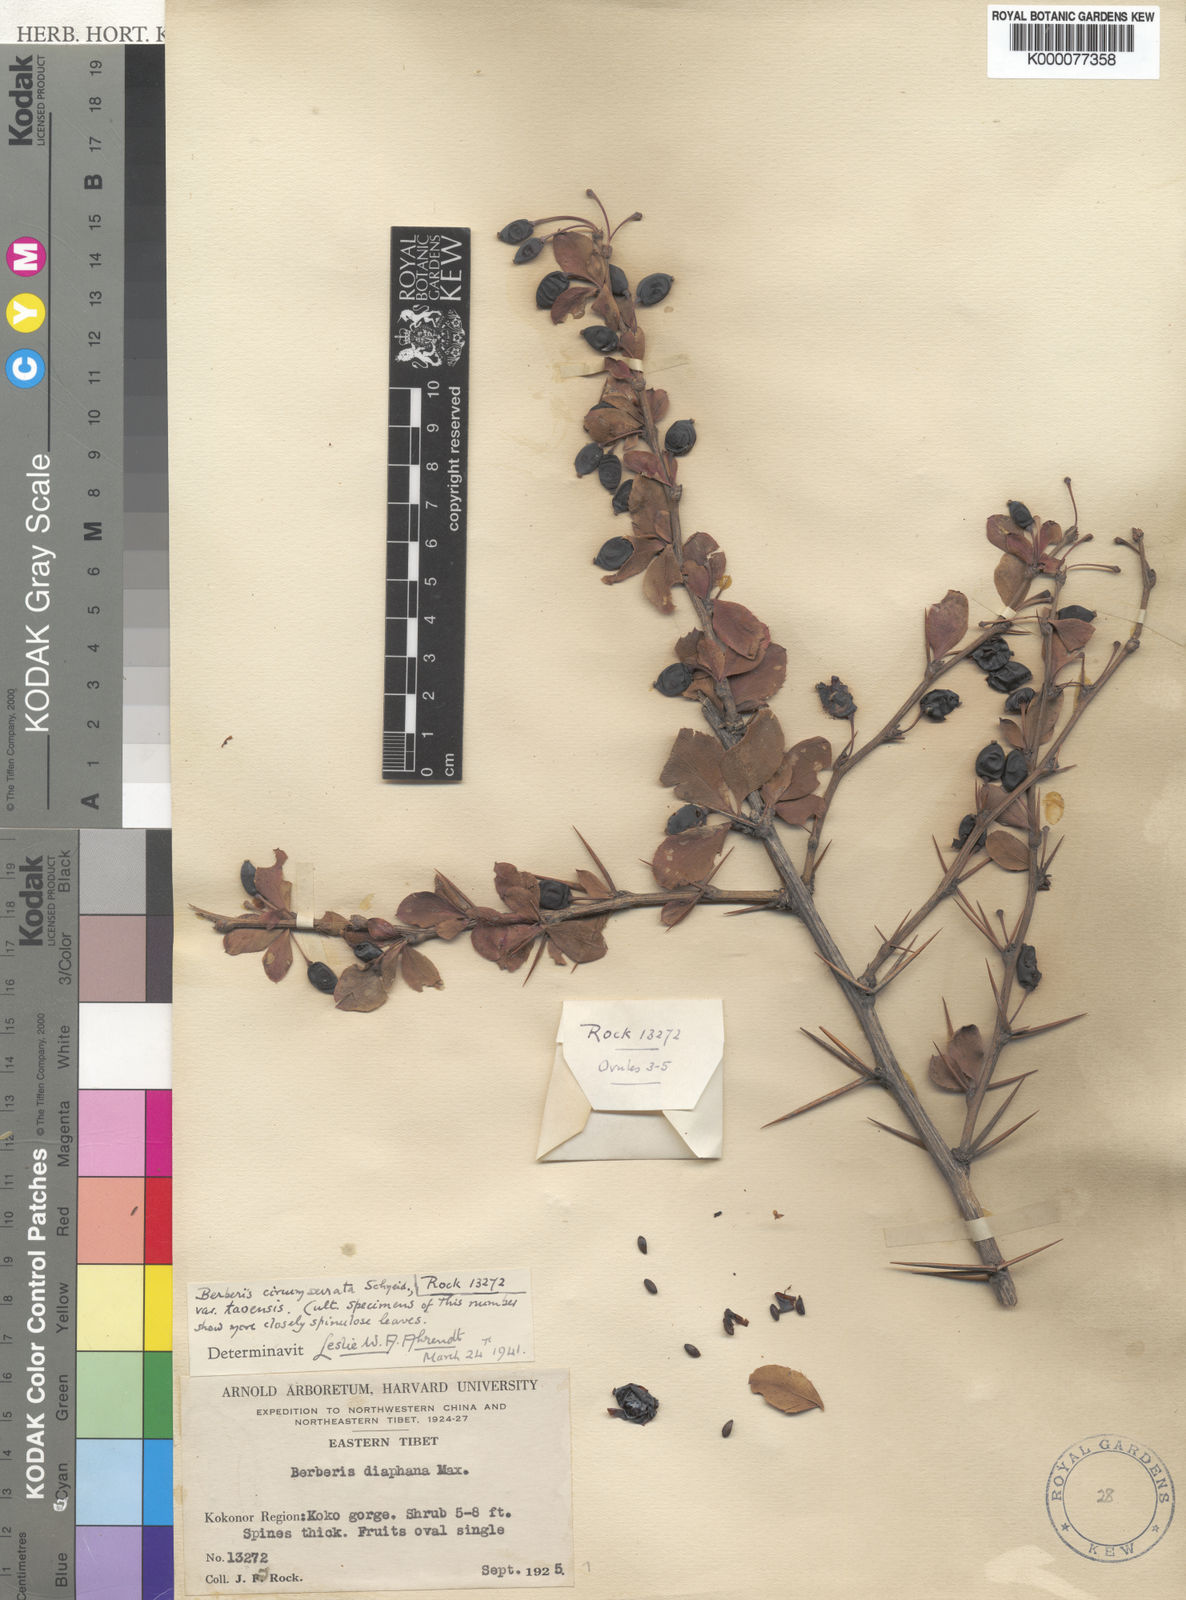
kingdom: Plantae
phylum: Tracheophyta
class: Magnoliopsida
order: Ranunculales
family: Berberidaceae
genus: Berberis
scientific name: Berberis circumserrata
